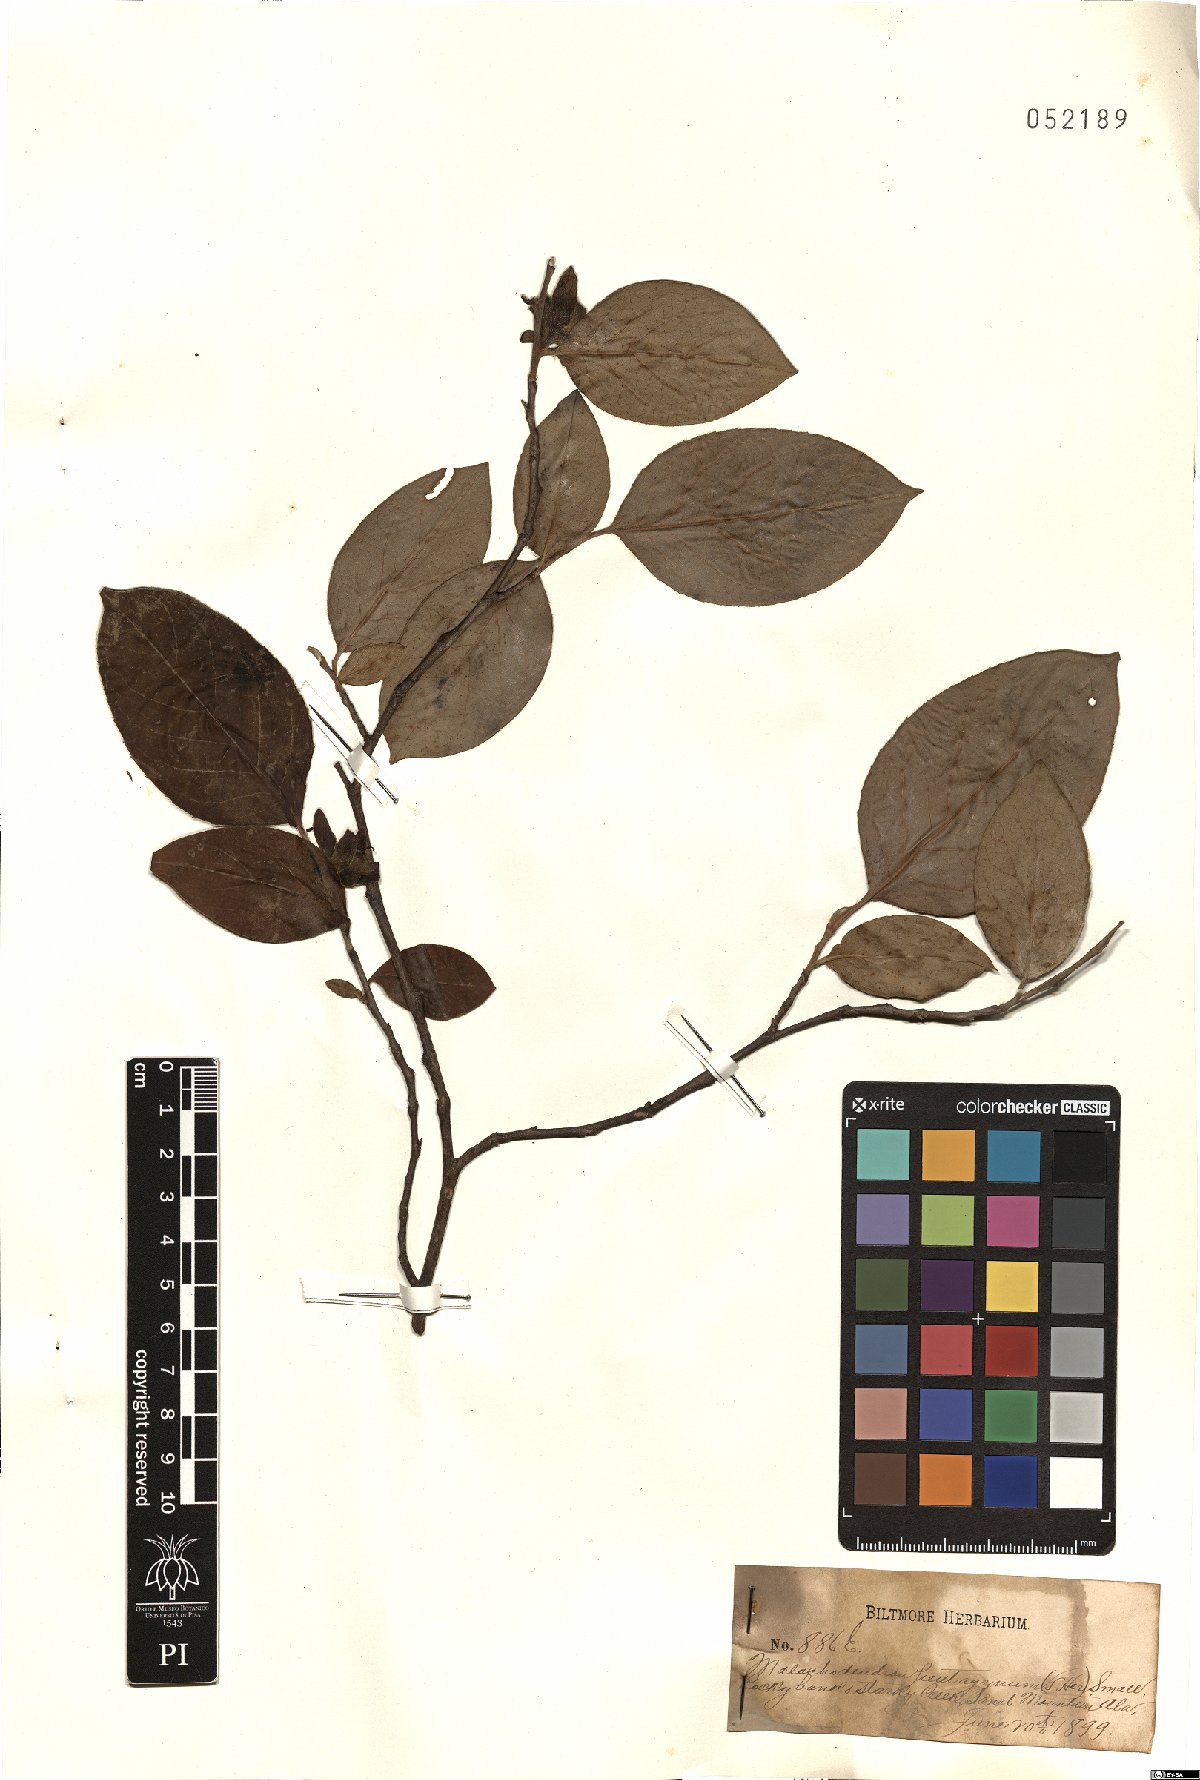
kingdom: Plantae
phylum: Tracheophyta
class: Magnoliopsida
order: Ericales
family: Theaceae
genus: Stewartia
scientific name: Stewartia ovata
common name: Mountain camellia
